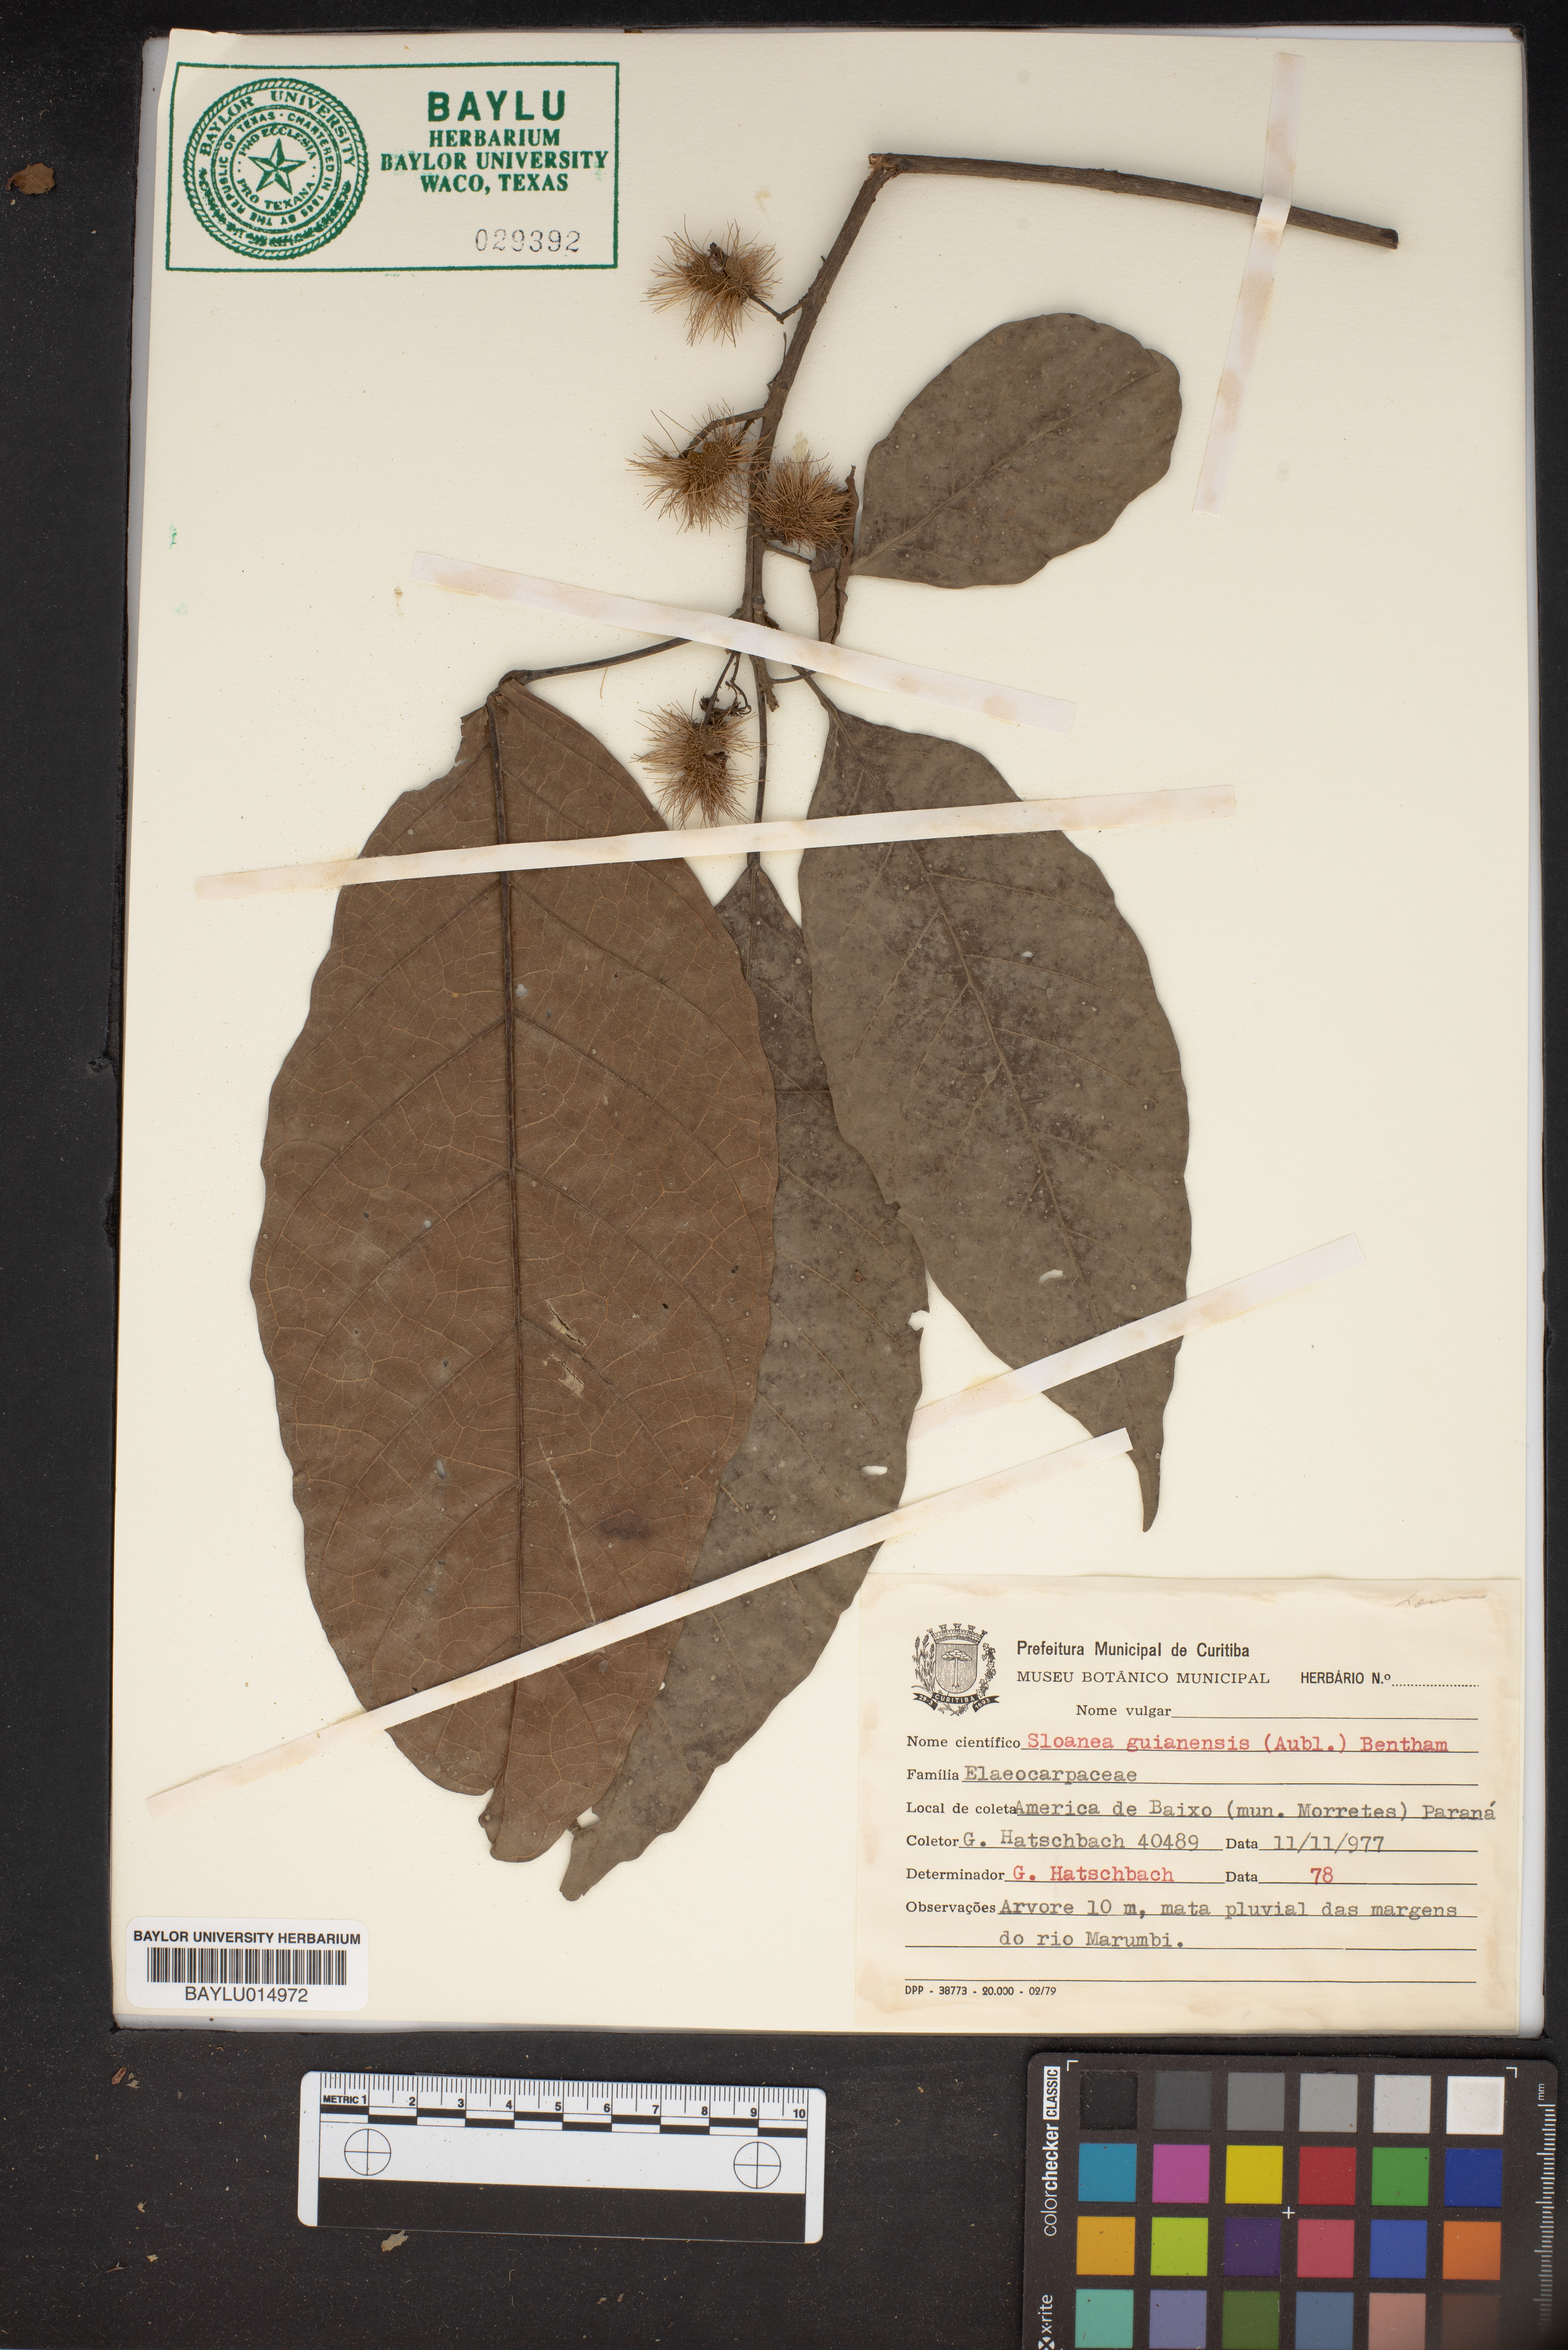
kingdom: Plantae
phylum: Tracheophyta
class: Magnoliopsida
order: Oxalidales
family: Elaeocarpaceae
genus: Sloanea
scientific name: Sloanea guianensis
